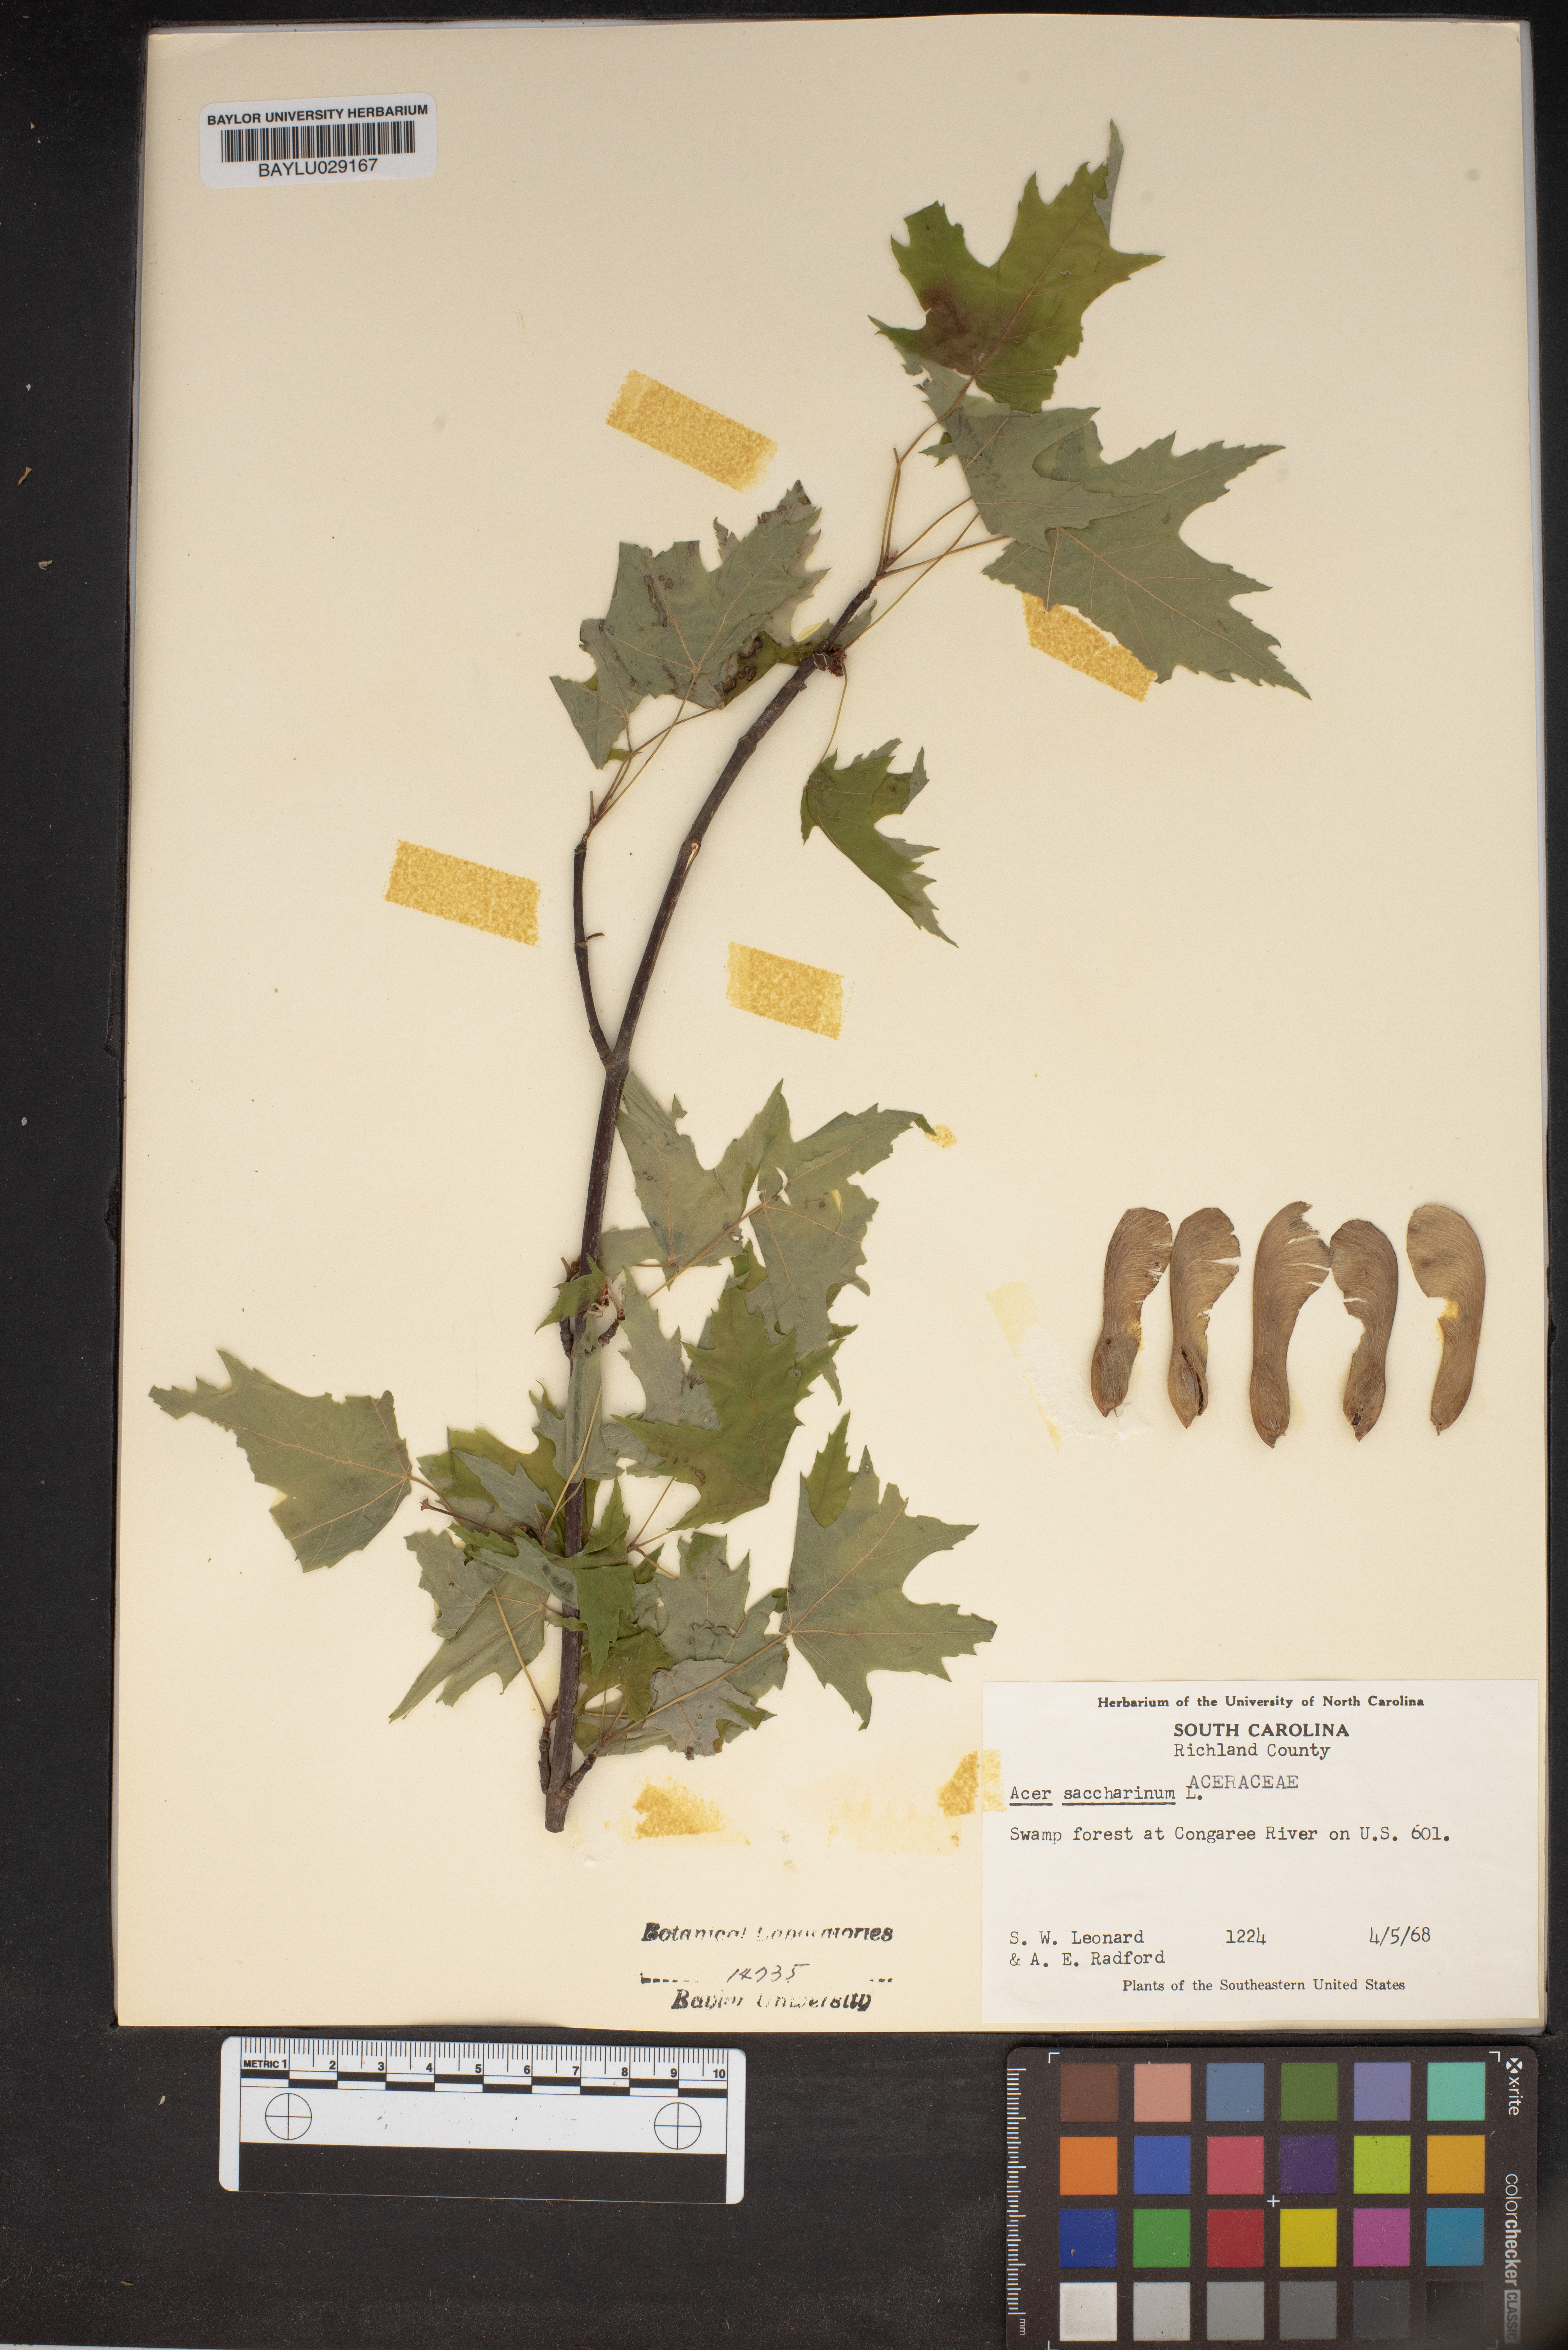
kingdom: Plantae
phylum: Tracheophyta
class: Magnoliopsida
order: Sapindales
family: Sapindaceae
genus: Acer
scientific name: Acer saccharinum
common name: Silver maple
